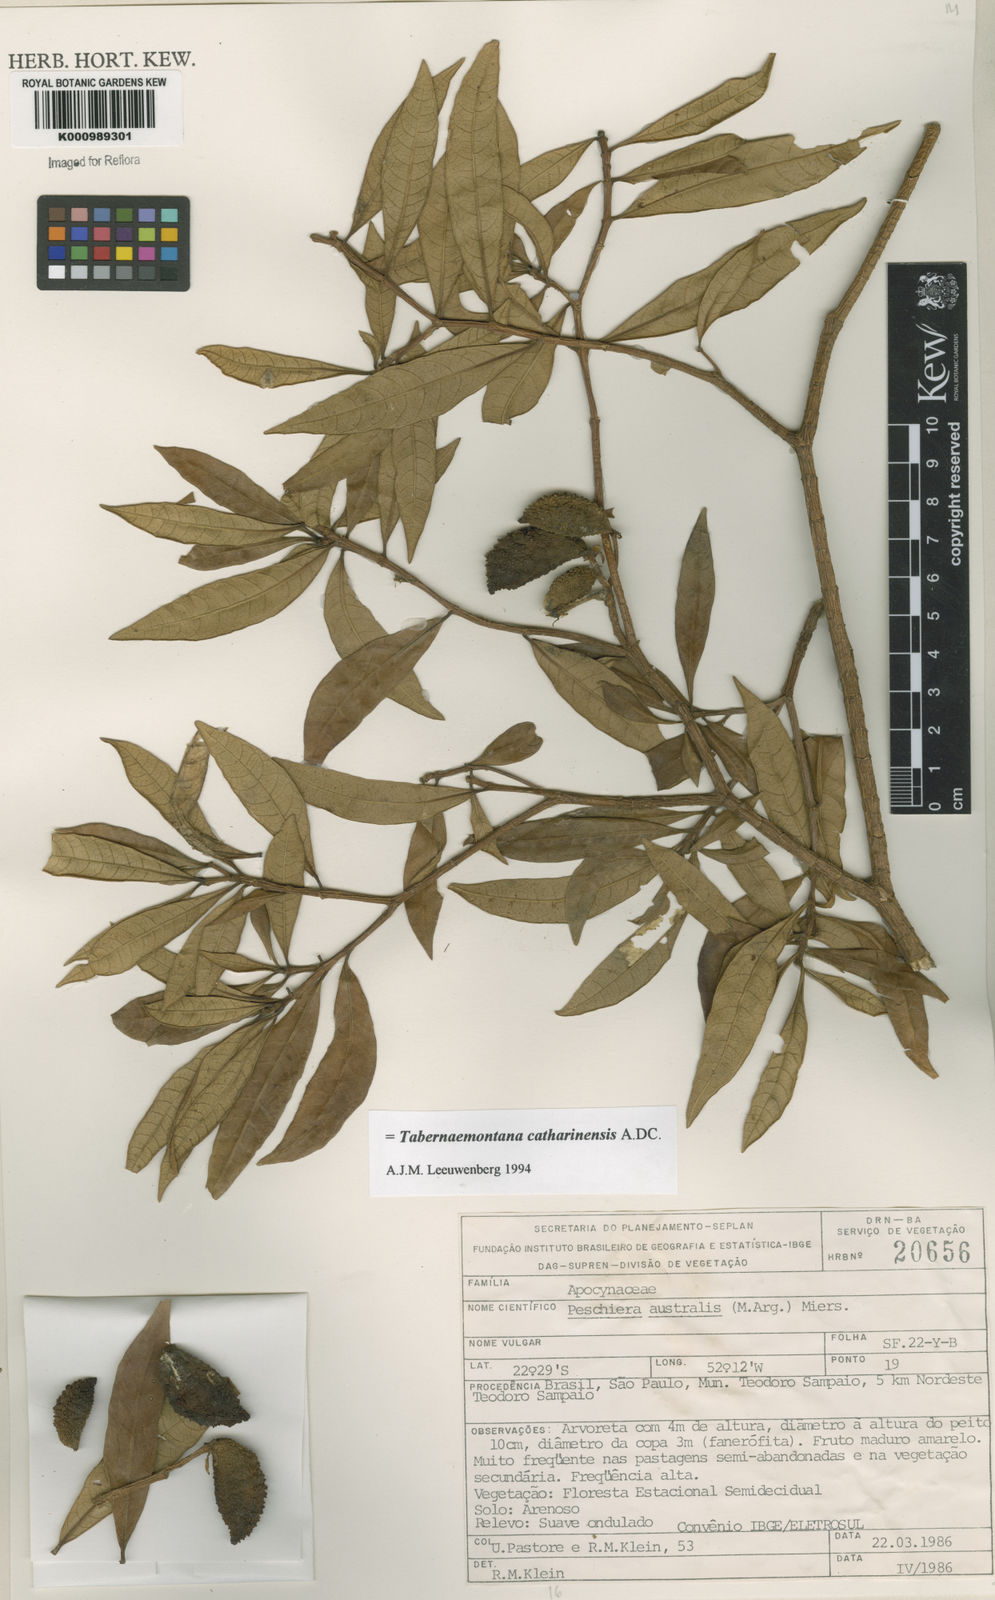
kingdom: Plantae
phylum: Tracheophyta
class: Magnoliopsida
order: Gentianales
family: Apocynaceae
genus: Tabernaemontana
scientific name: Tabernaemontana catharinensis
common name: Pinwheel-flower
